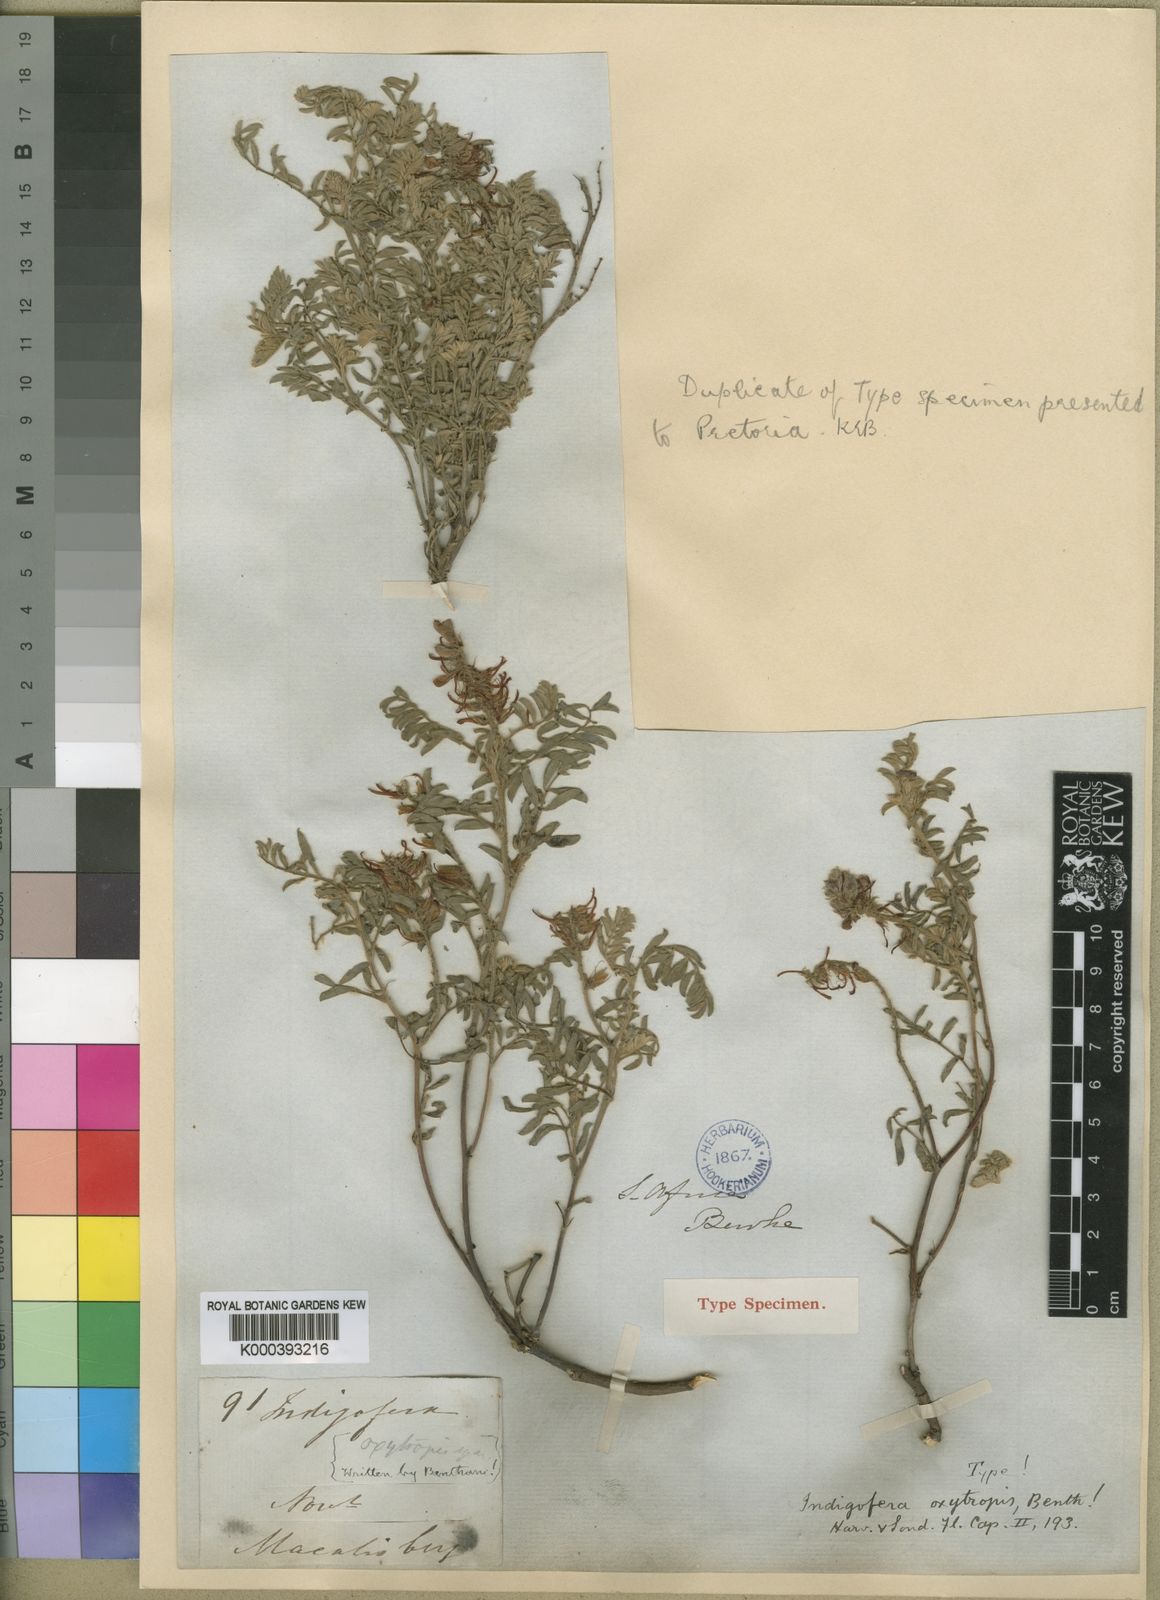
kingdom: Plantae
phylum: Tracheophyta
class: Magnoliopsida
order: Fabales
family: Fabaceae
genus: Indigofera
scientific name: Indigofera oxytropis
